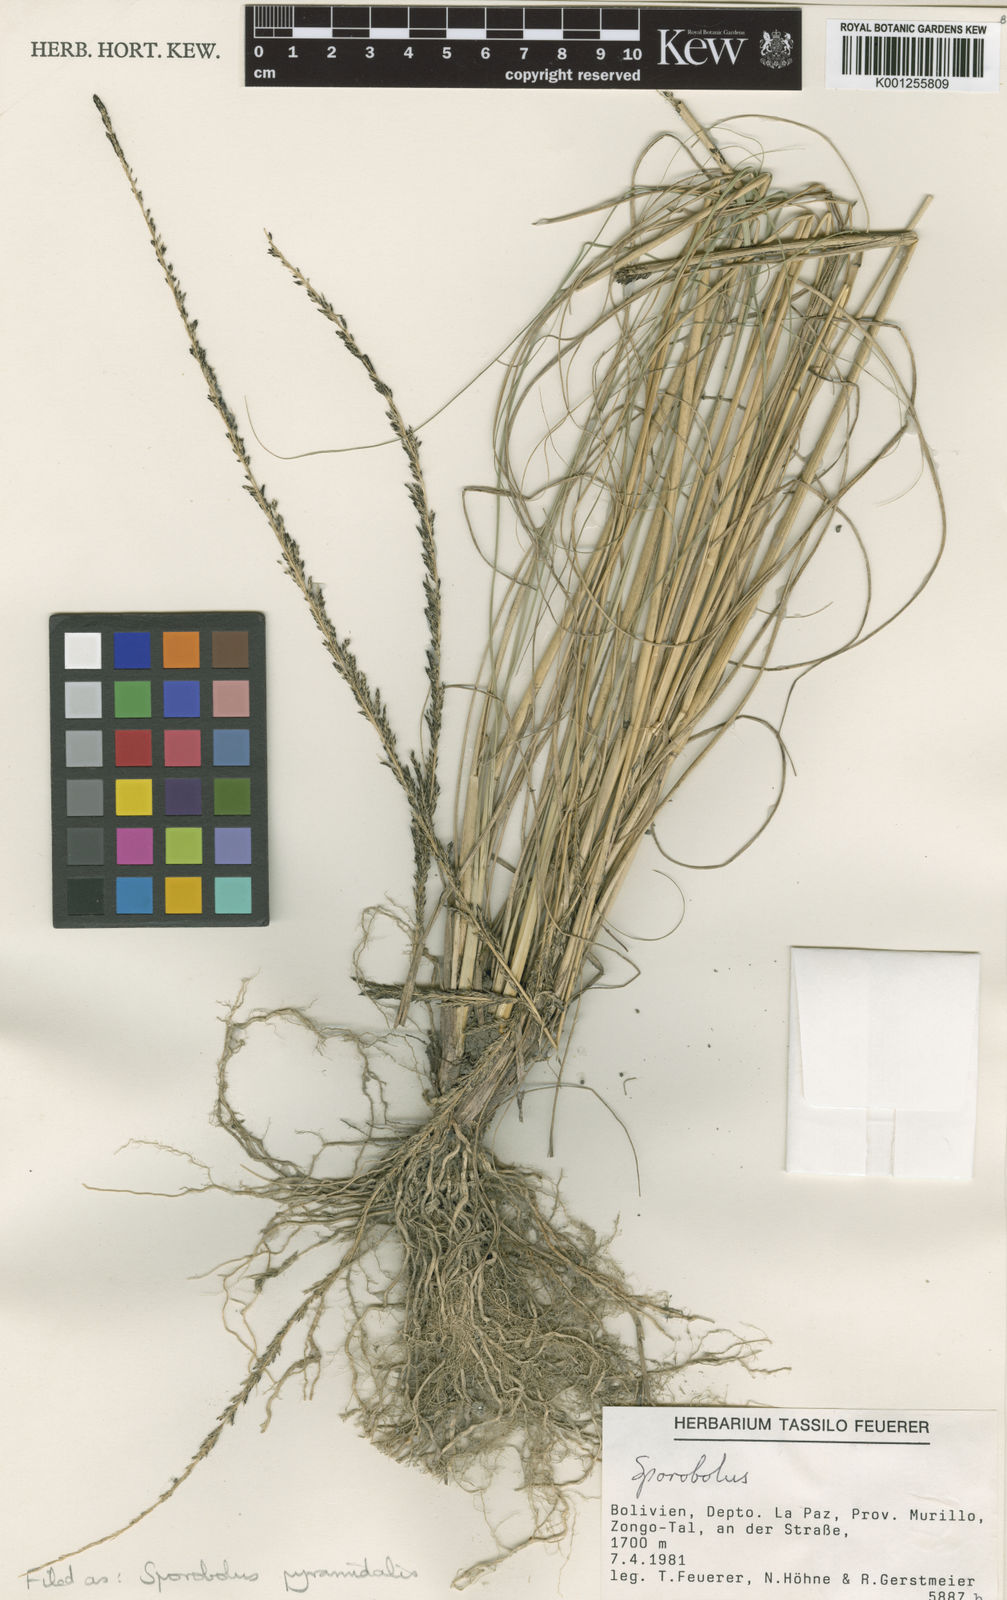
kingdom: Plantae
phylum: Tracheophyta
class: Liliopsida
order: Poales
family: Poaceae
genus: Sporobolus
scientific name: Sporobolus pyramidalis
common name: West indian dropseed
